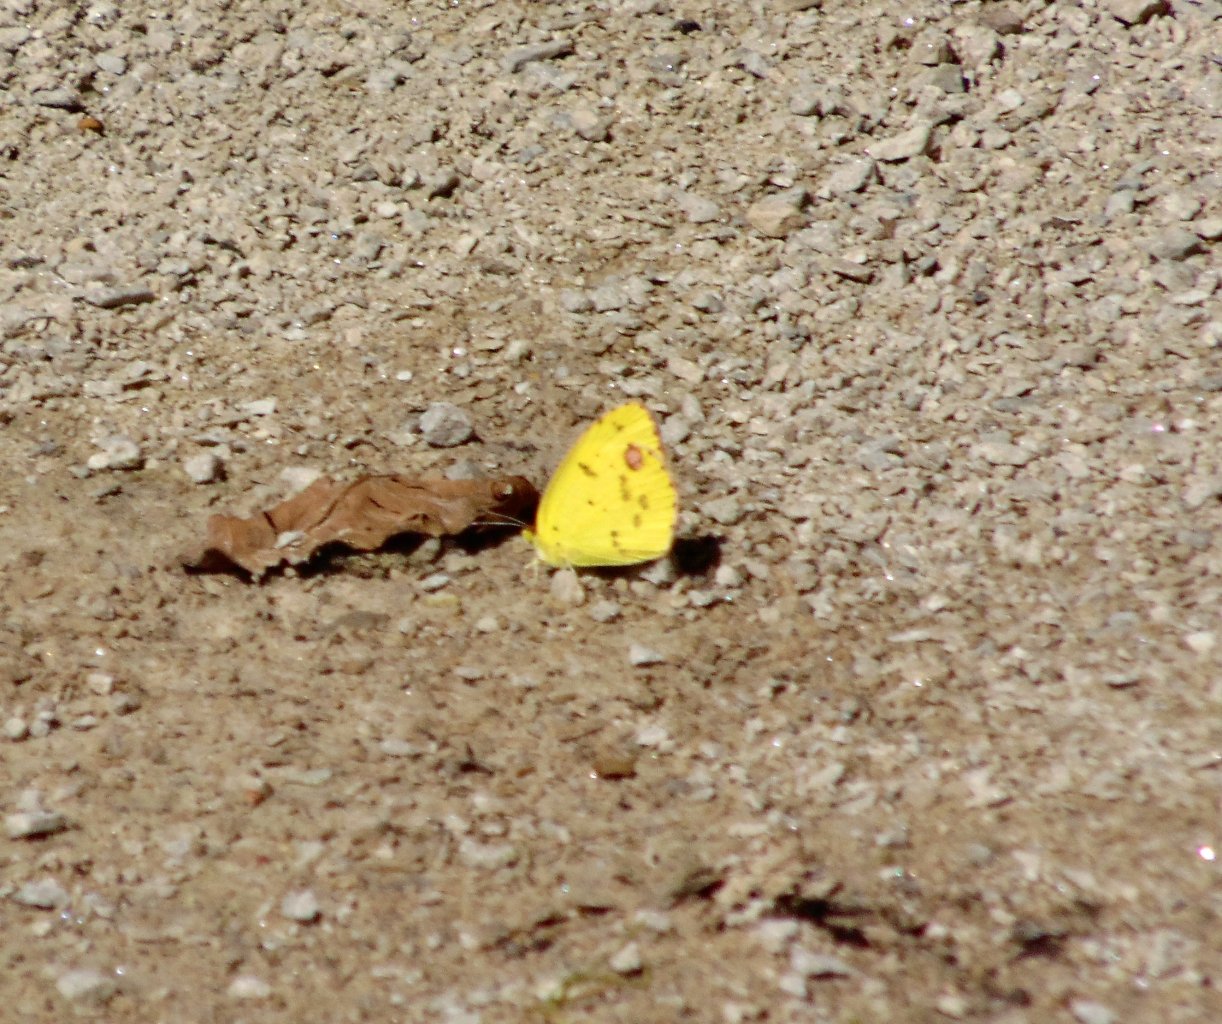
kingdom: Animalia
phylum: Arthropoda
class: Insecta
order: Lepidoptera
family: Pieridae
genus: Pyrisitia
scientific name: Pyrisitia lisa
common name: Little Yellow
